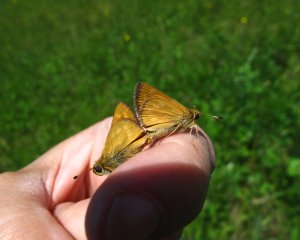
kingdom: Animalia
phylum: Arthropoda
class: Insecta
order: Lepidoptera
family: Hesperiidae
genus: Hesperia
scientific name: Hesperia sassacus
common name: Sassacus Skipper
